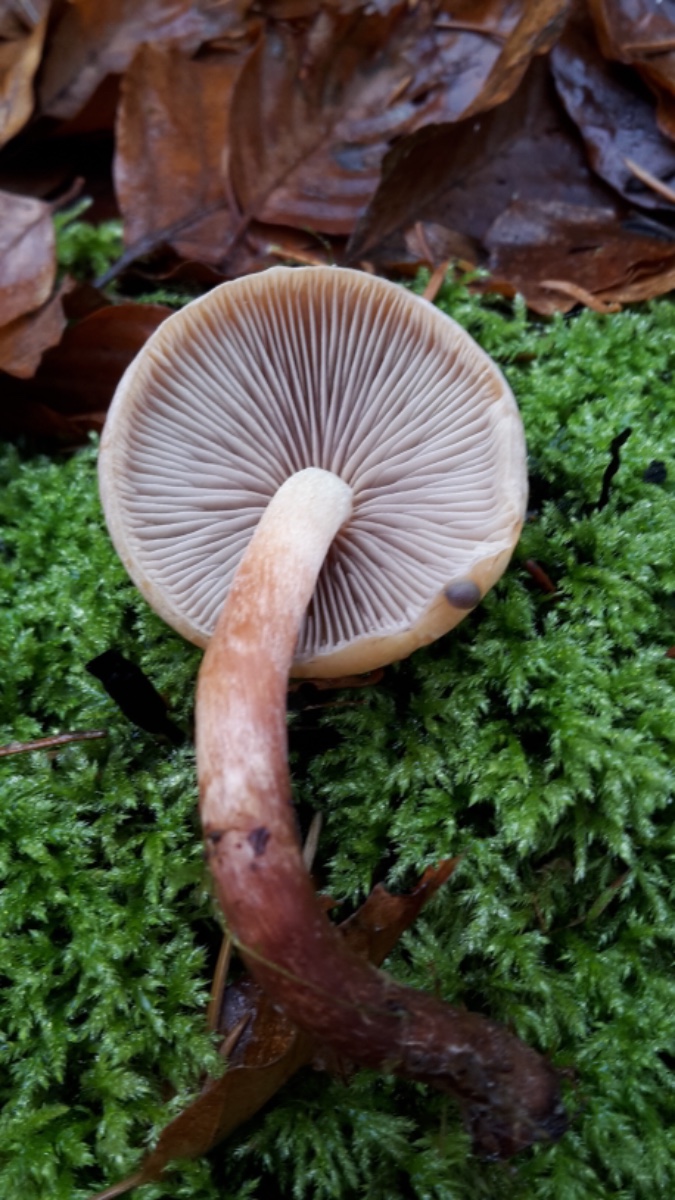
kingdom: Fungi
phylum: Basidiomycota
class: Agaricomycetes
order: Agaricales
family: Strophariaceae
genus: Hypholoma
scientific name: Hypholoma lateritium
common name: teglrød svovlhat
